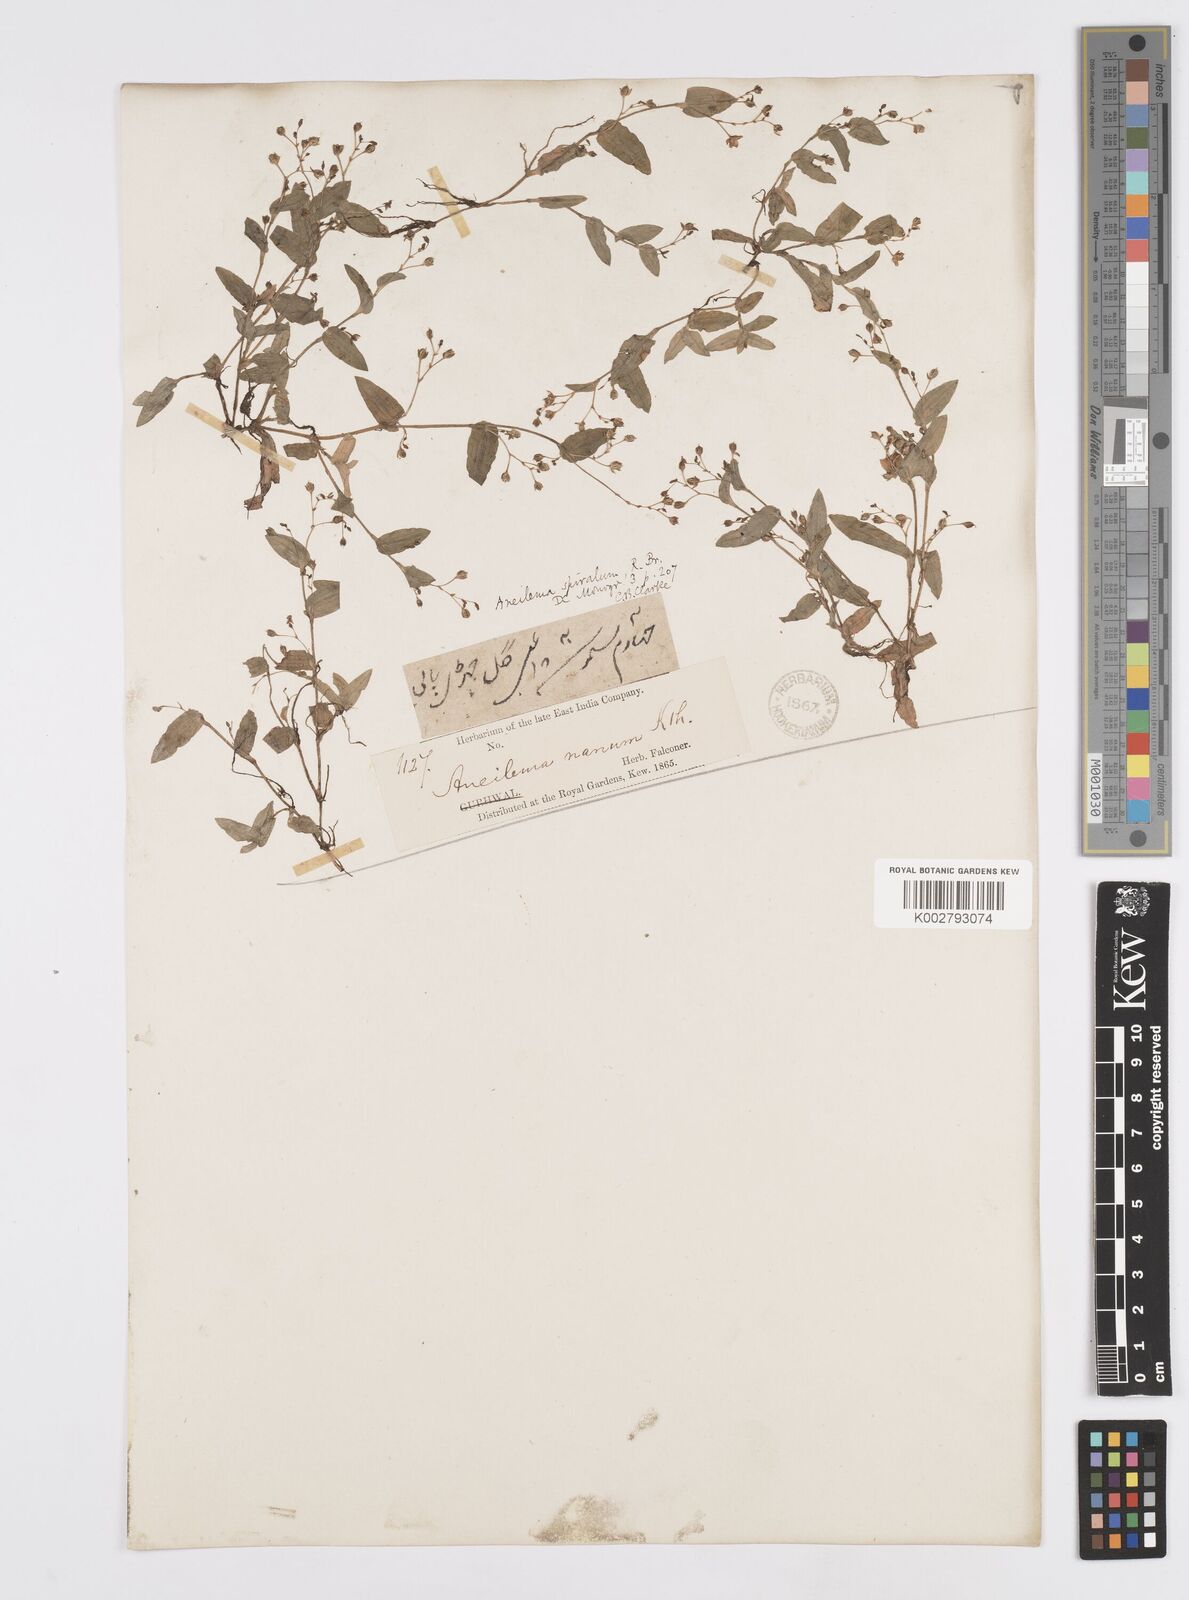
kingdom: Plantae
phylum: Tracheophyta
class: Liliopsida
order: Commelinales
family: Commelinaceae
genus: Murdannia
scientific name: Murdannia spirata
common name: Asiatic dewflower
